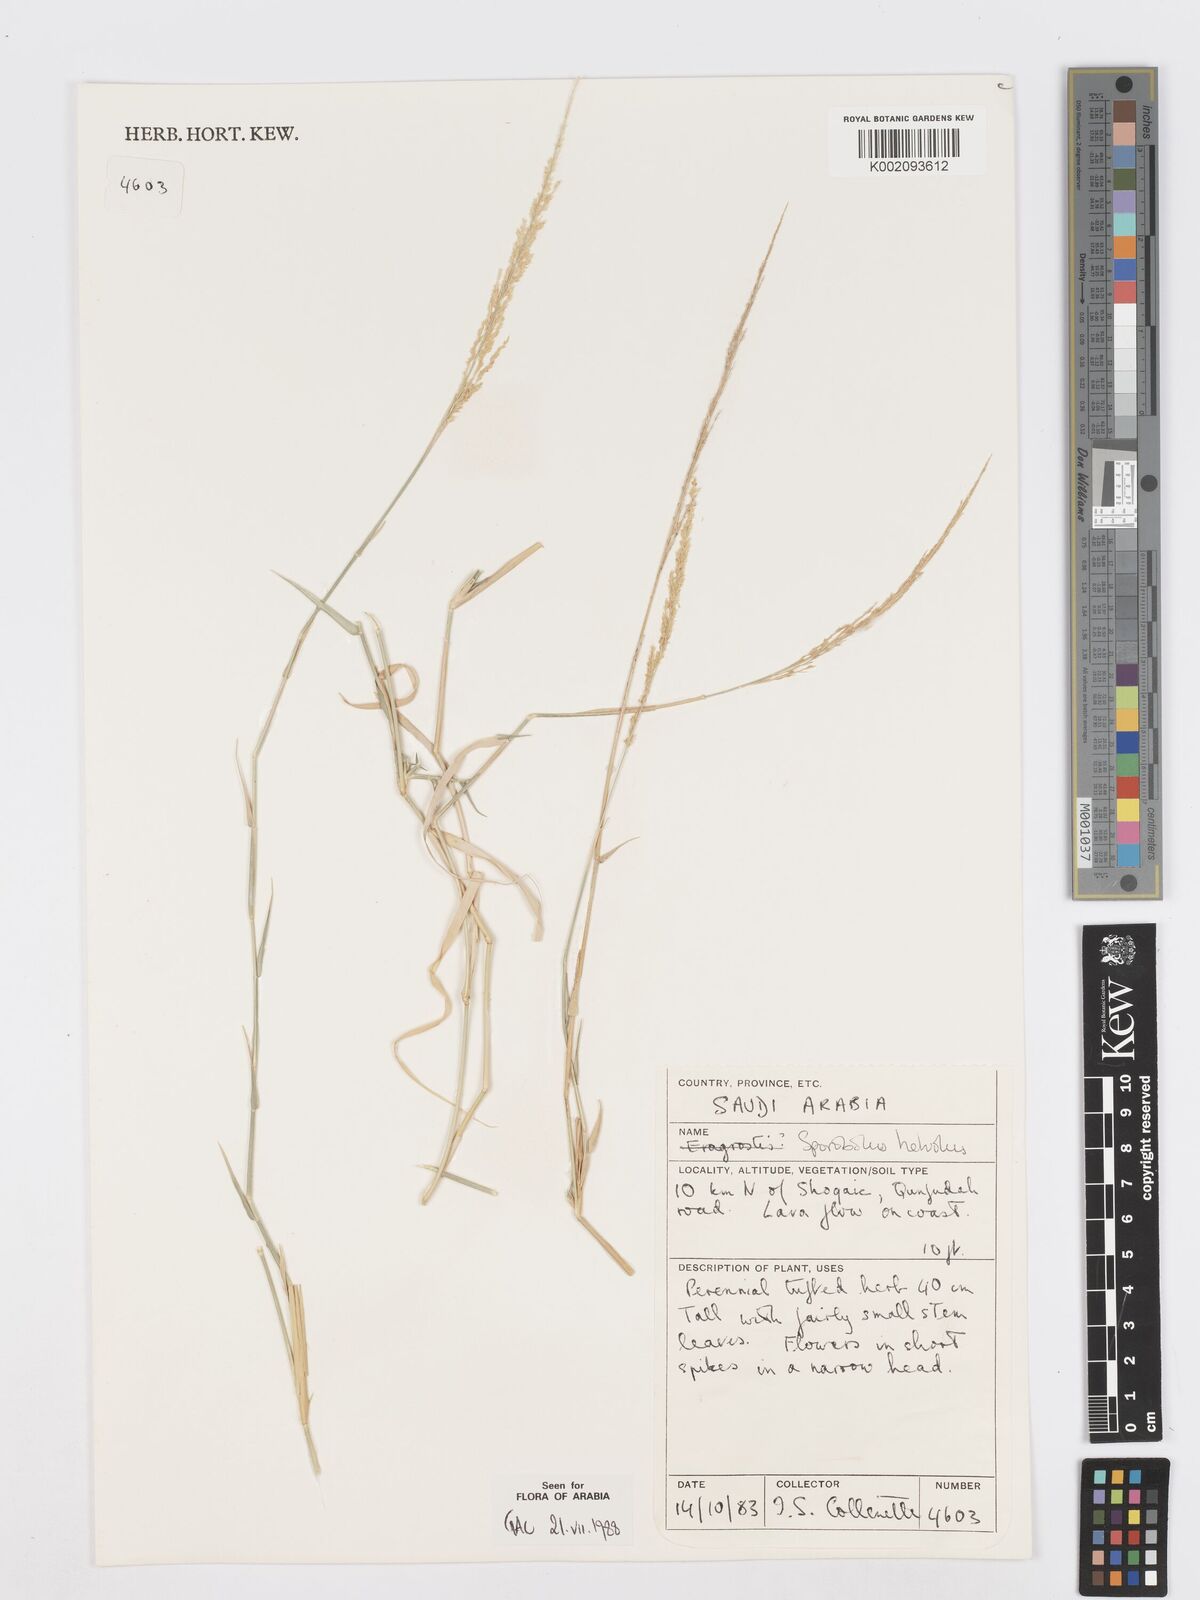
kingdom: Plantae
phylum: Tracheophyta
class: Liliopsida
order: Poales
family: Poaceae
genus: Sporobolus
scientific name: Sporobolus helvolus
